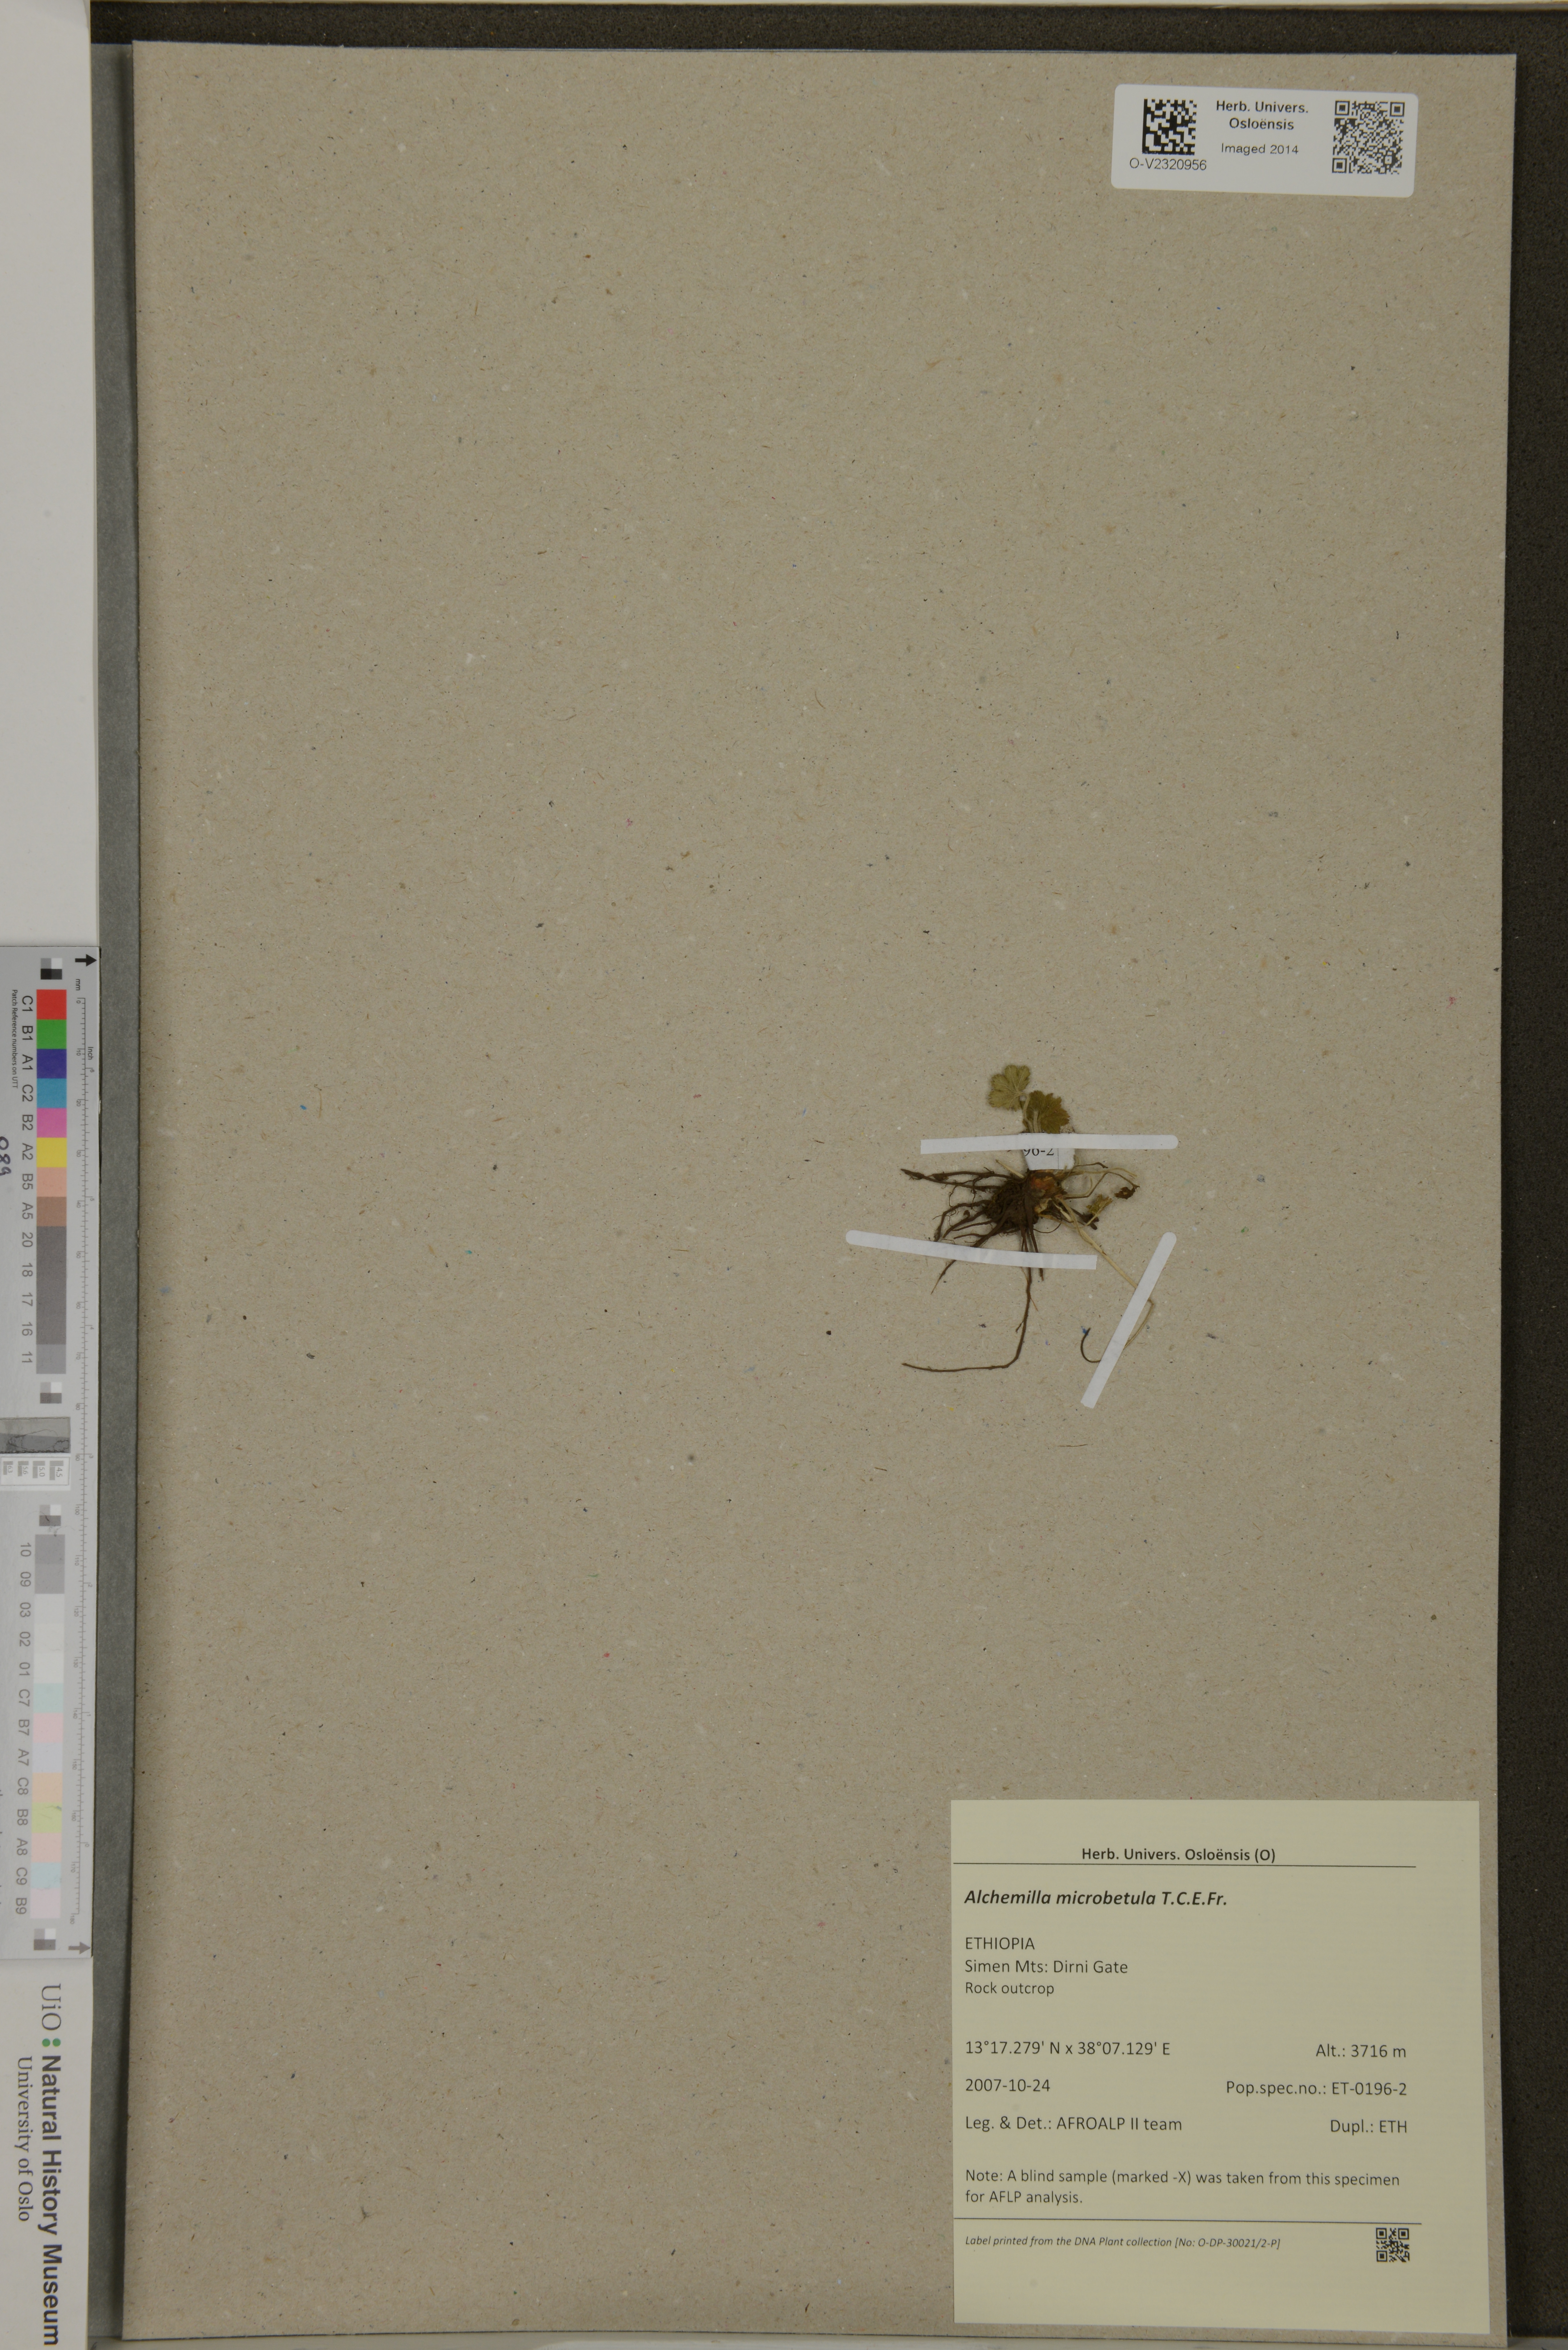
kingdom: Plantae
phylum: Tracheophyta
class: Magnoliopsida
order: Rosales
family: Rosaceae
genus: Alchemilla
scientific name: Alchemilla microbetula
